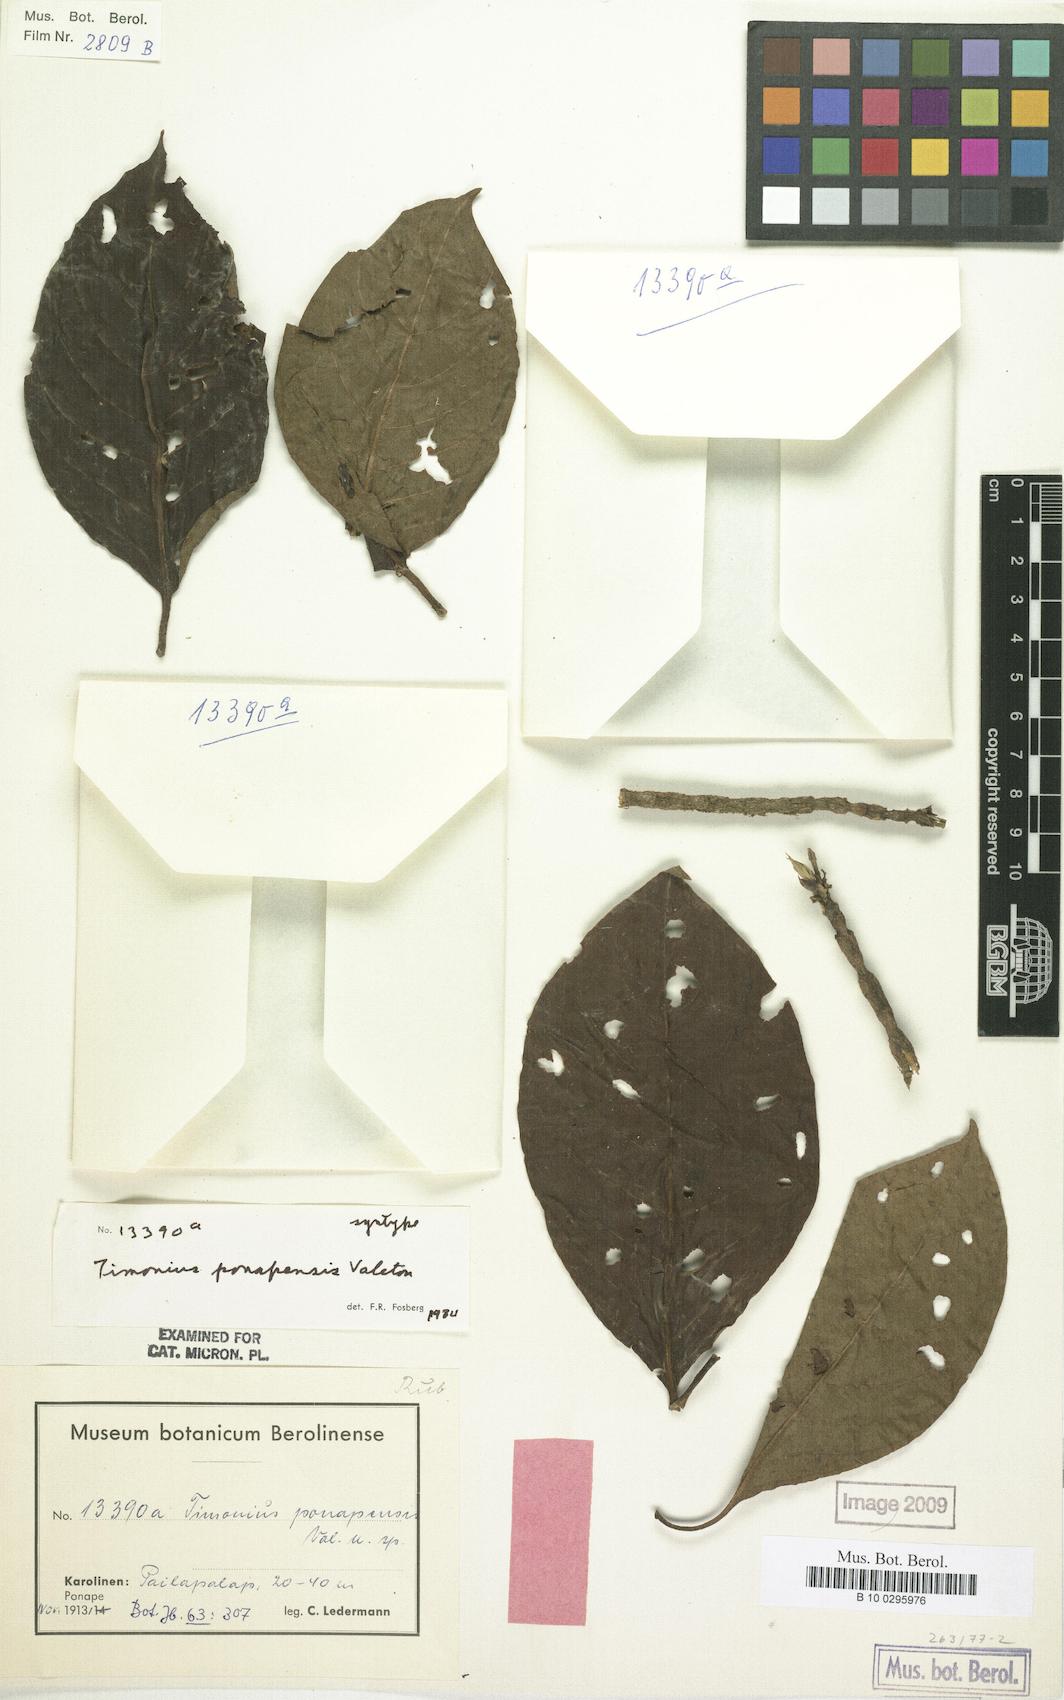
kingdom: Plantae
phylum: Tracheophyta
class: Magnoliopsida
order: Gentianales
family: Rubiaceae
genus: Timonius
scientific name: Timonius ponapensis
